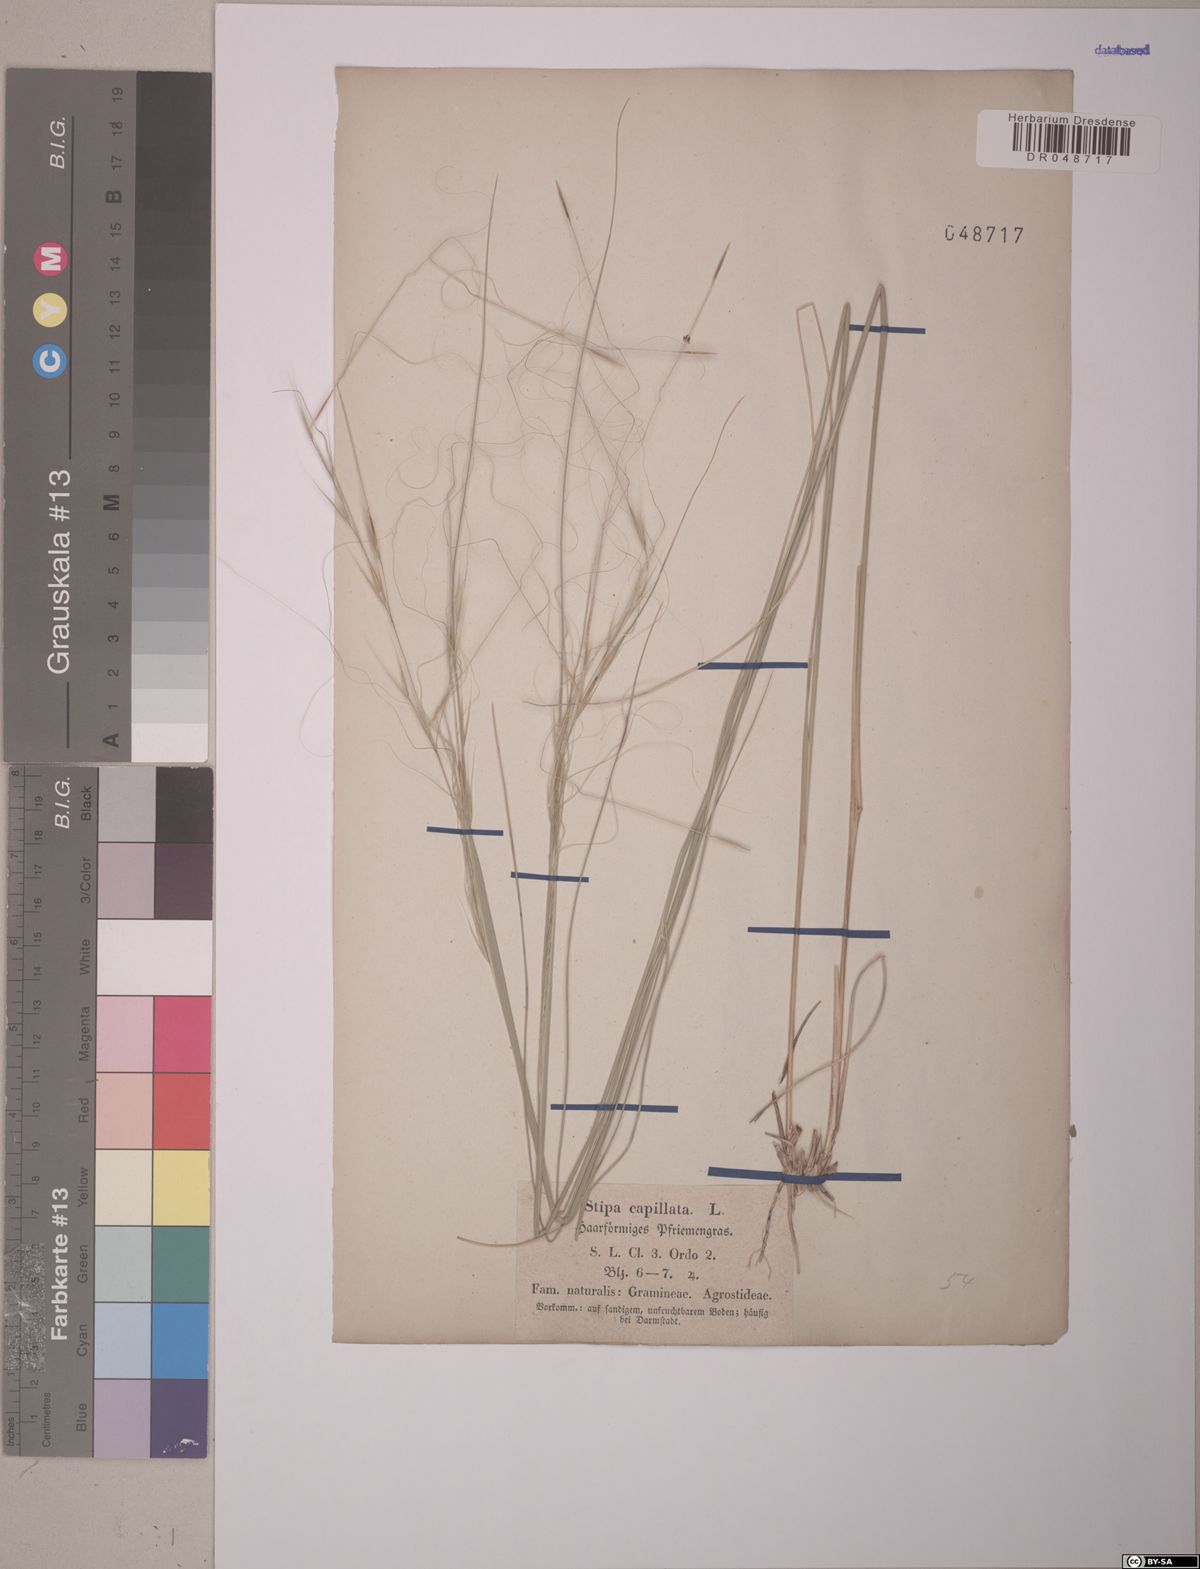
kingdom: Plantae
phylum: Tracheophyta
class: Liliopsida
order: Poales
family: Poaceae
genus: Stipa
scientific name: Stipa capillata
